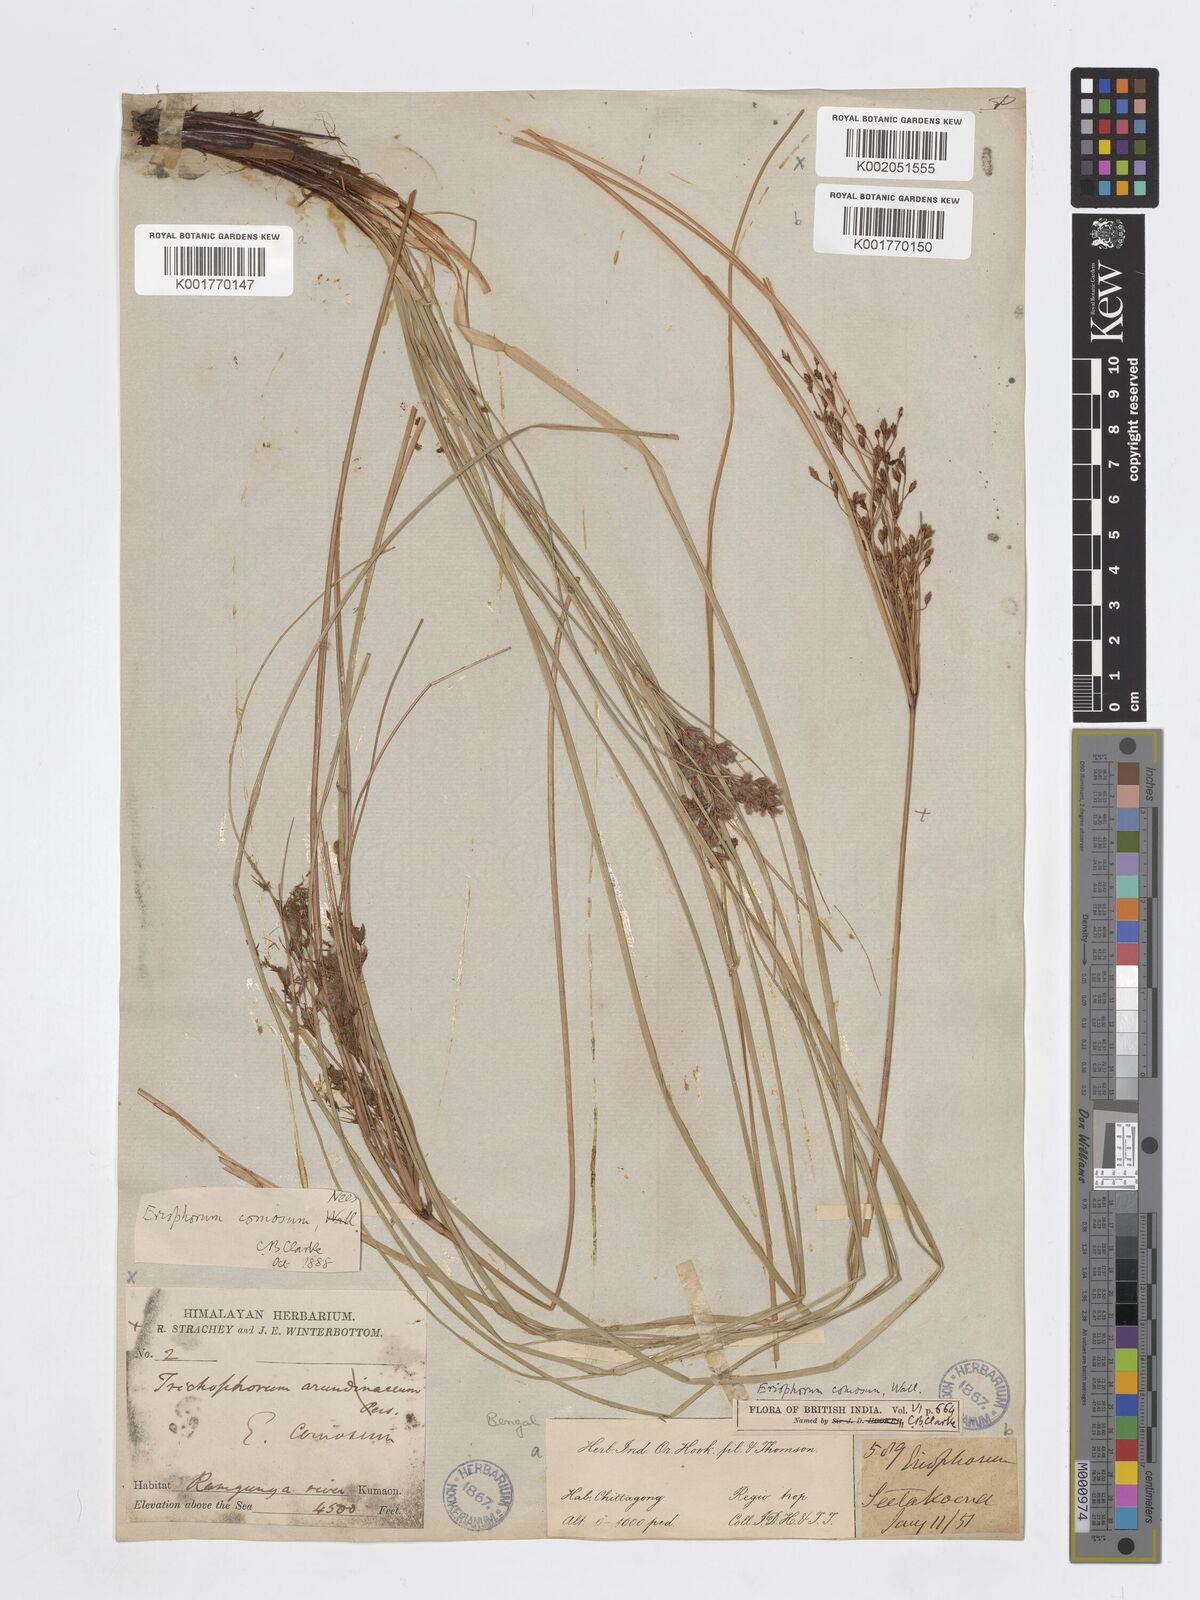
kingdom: Plantae
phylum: Tracheophyta
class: Liliopsida
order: Poales
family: Cyperaceae
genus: Erioscirpus
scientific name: Erioscirpus comosus
